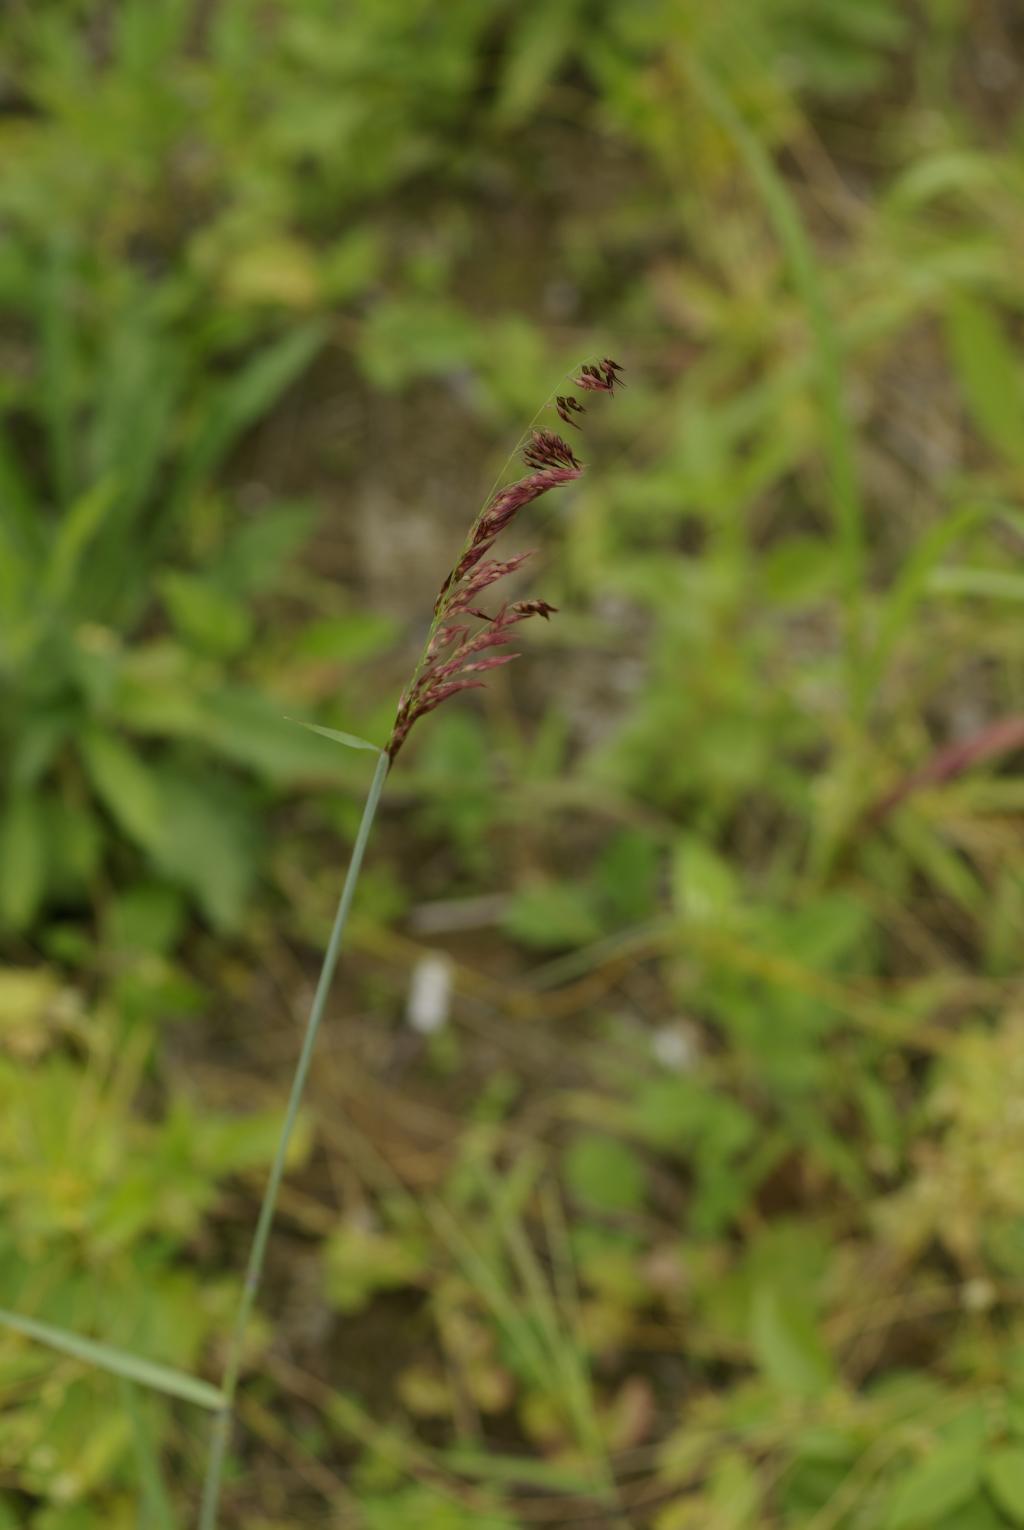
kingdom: Plantae
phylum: Tracheophyta
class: Liliopsida
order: Poales
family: Poaceae
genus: Melinis
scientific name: Melinis repens
